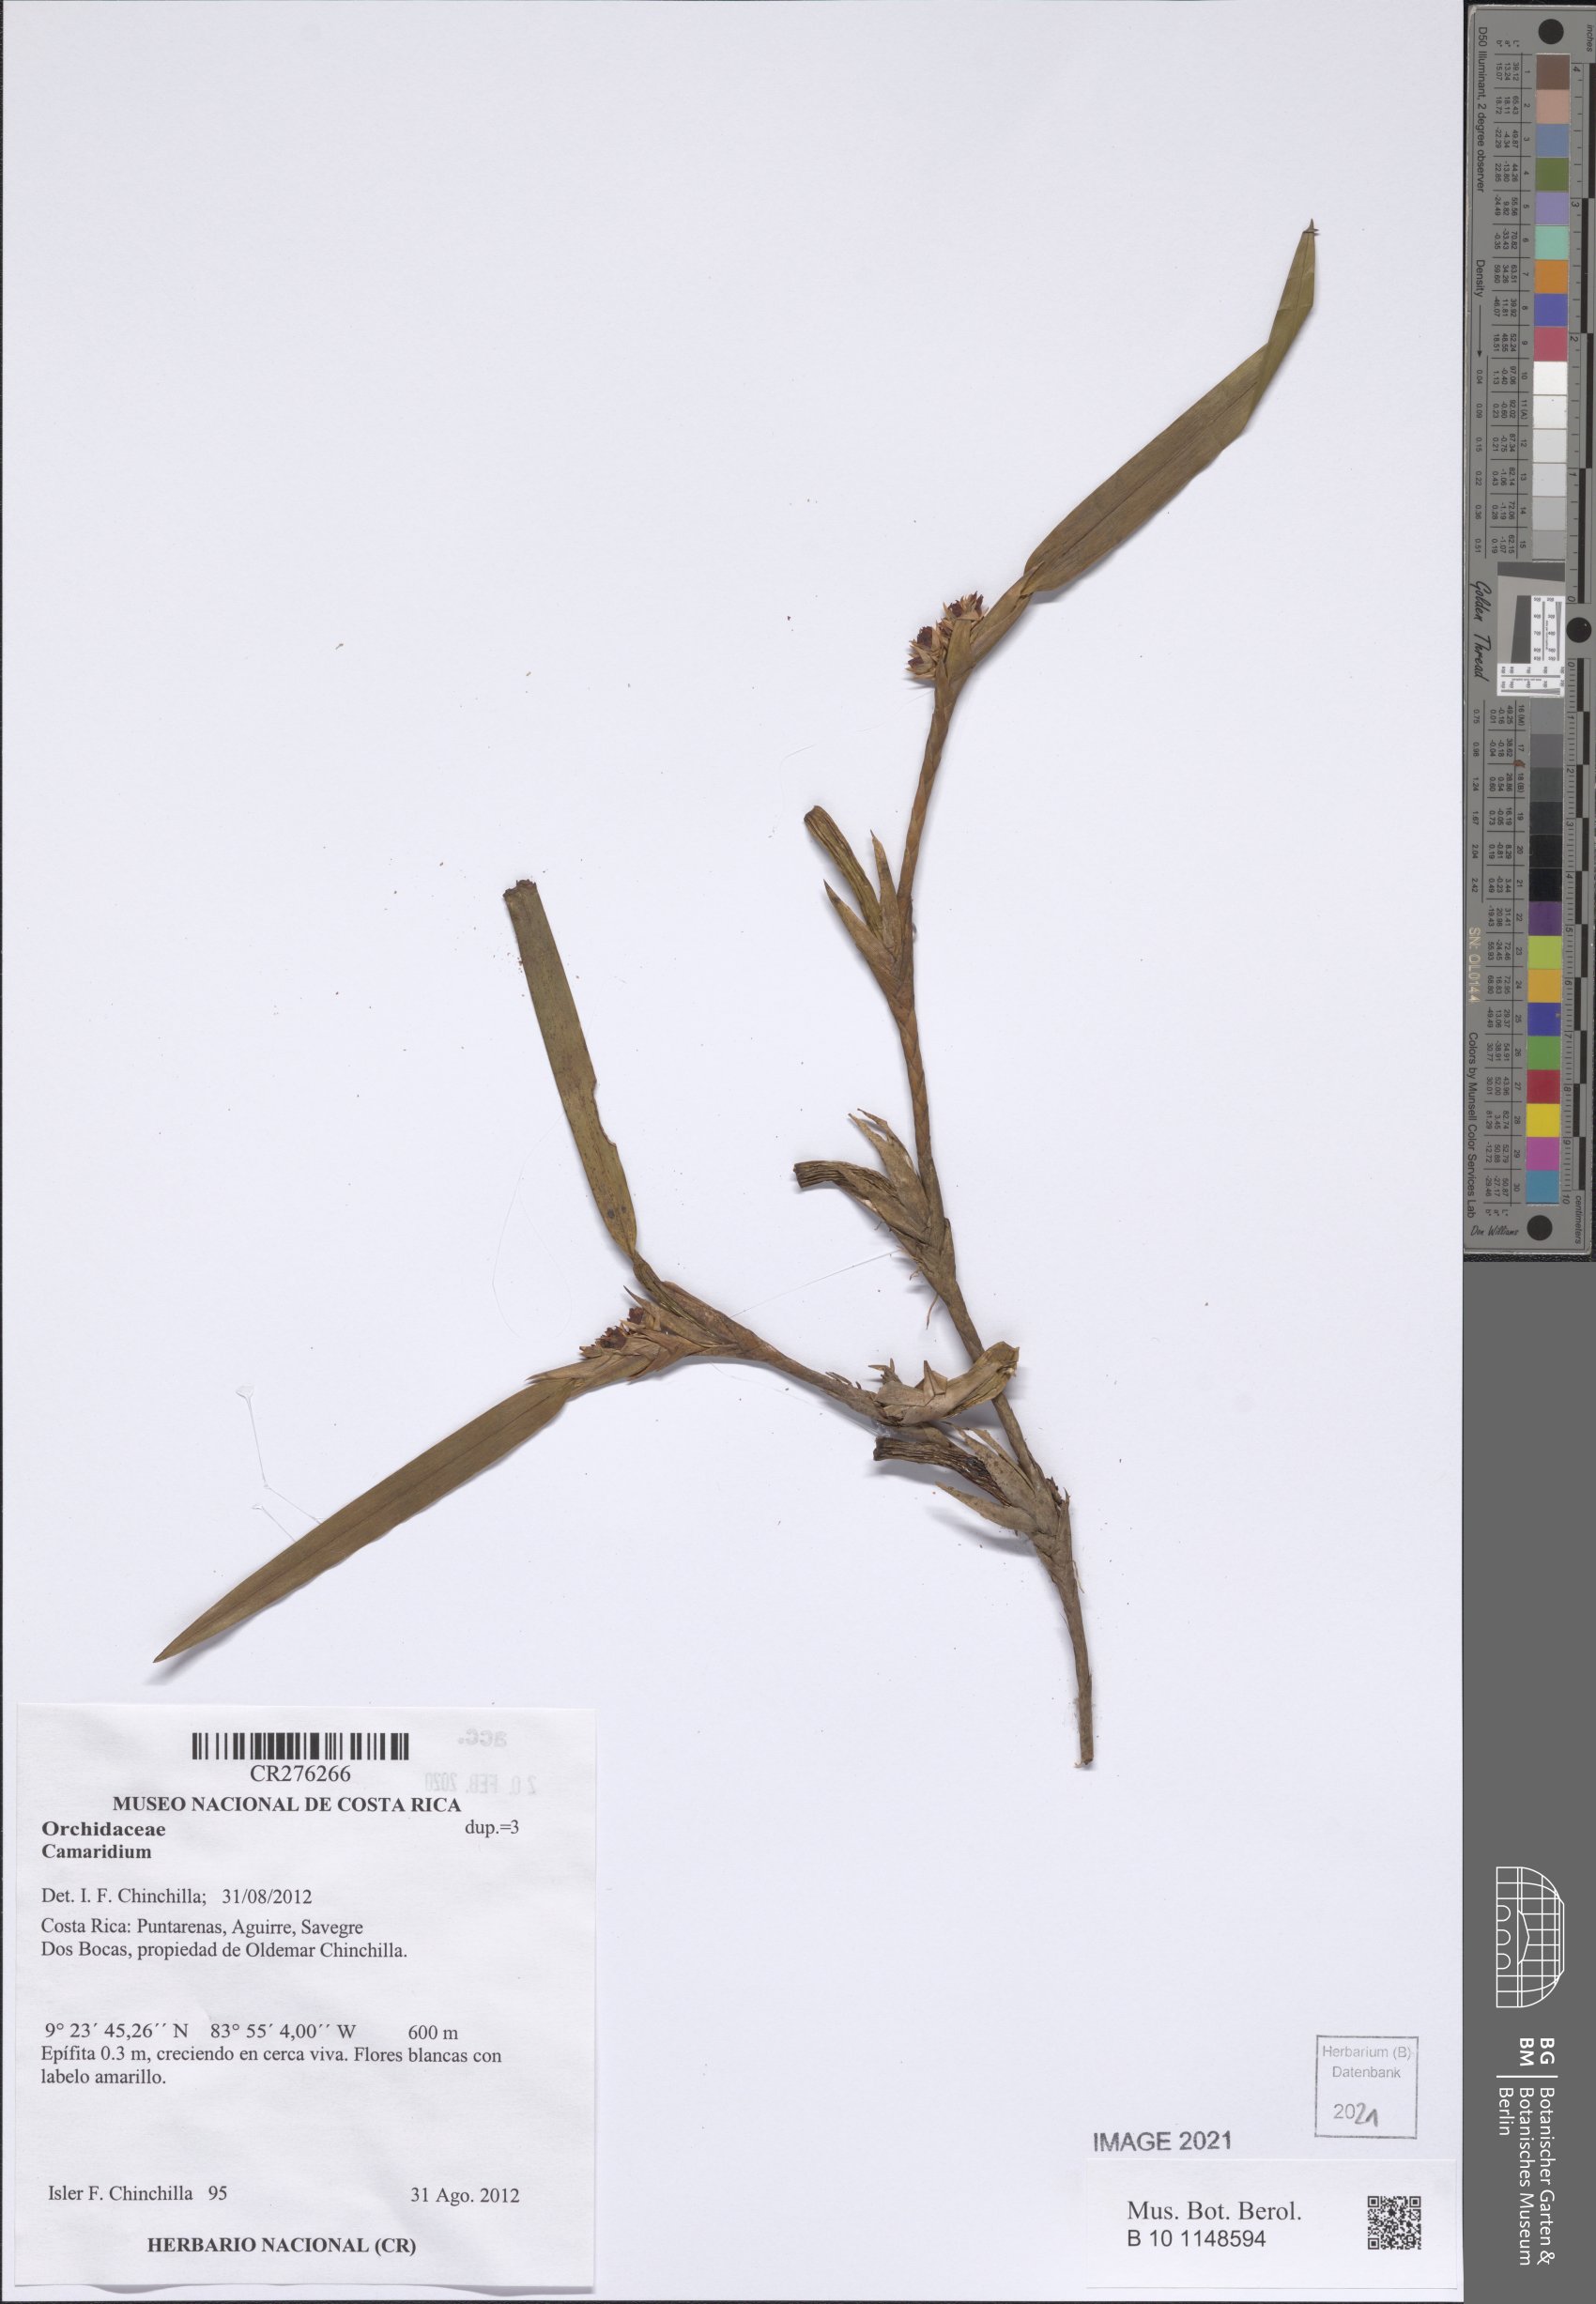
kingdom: Plantae
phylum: Tracheophyta
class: Liliopsida
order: Asparagales
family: Orchidaceae
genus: Maxillaria
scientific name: Maxillaria horichii
